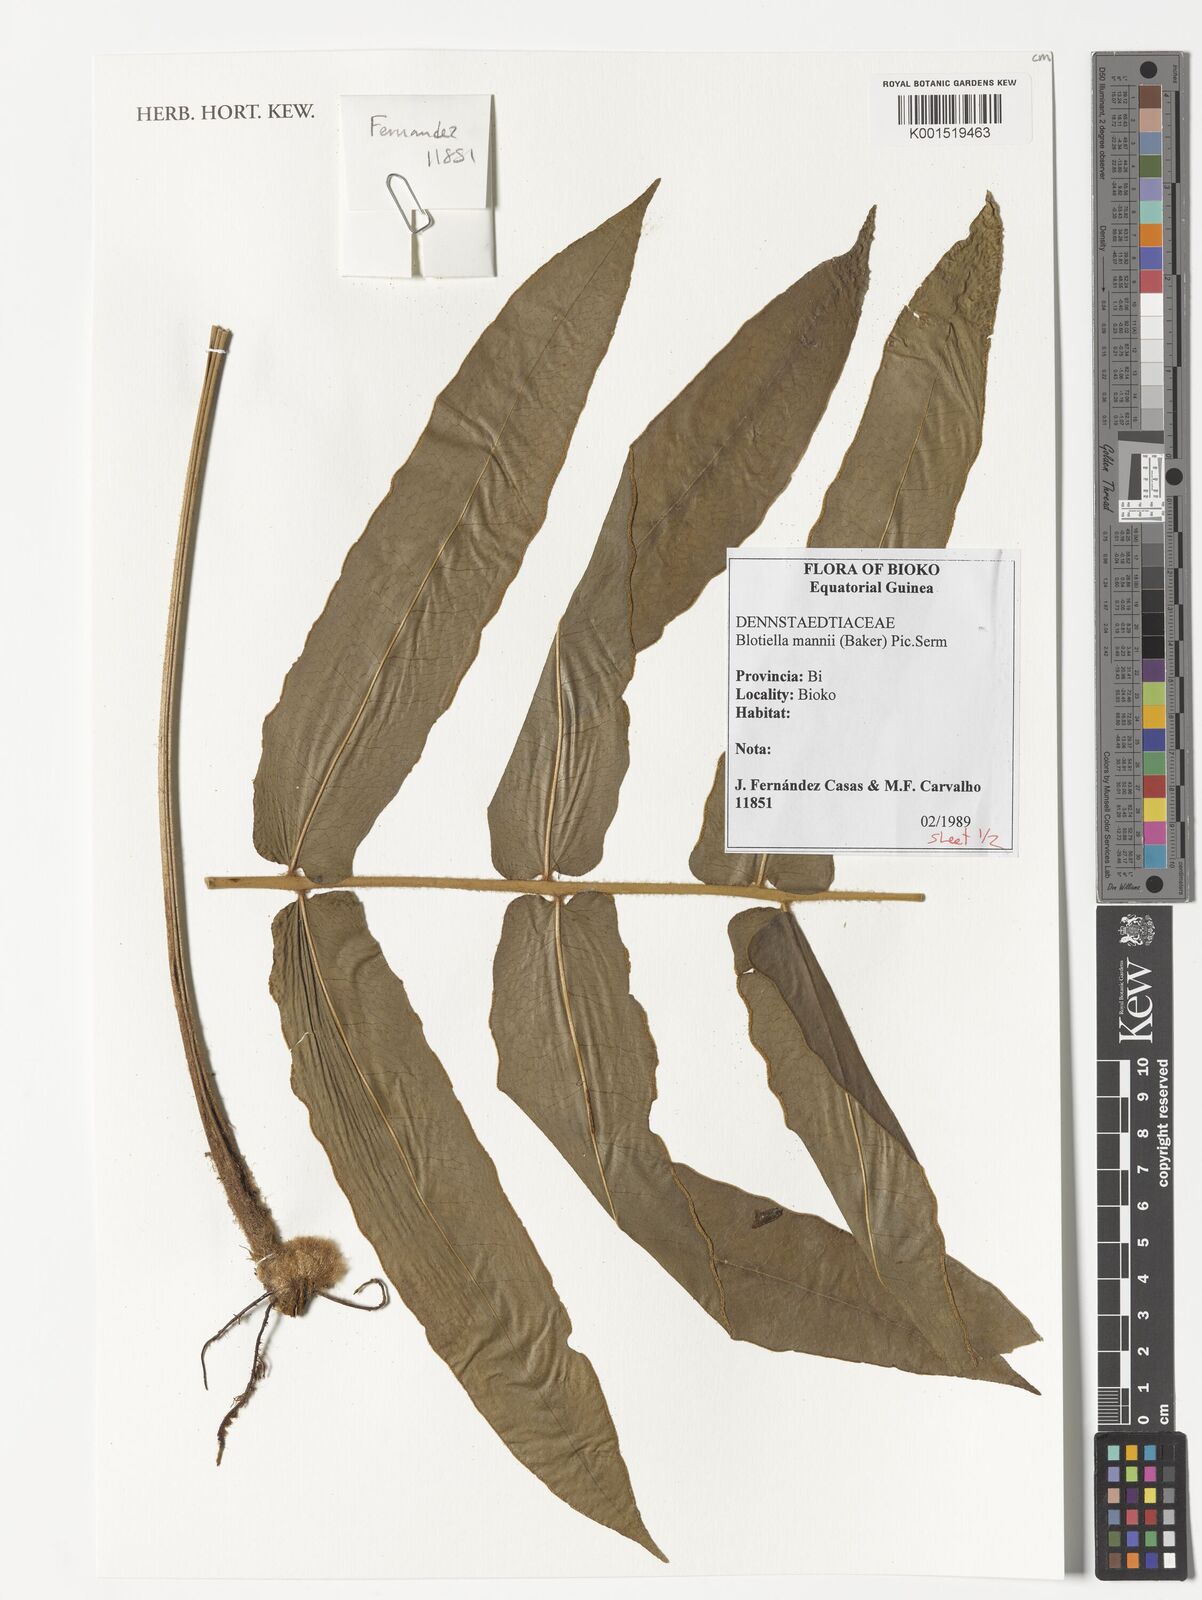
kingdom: Plantae
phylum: Tracheophyta
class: Polypodiopsida
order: Polypodiales
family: Dennstaedtiaceae
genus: Blotiella
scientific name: Blotiella currorii
